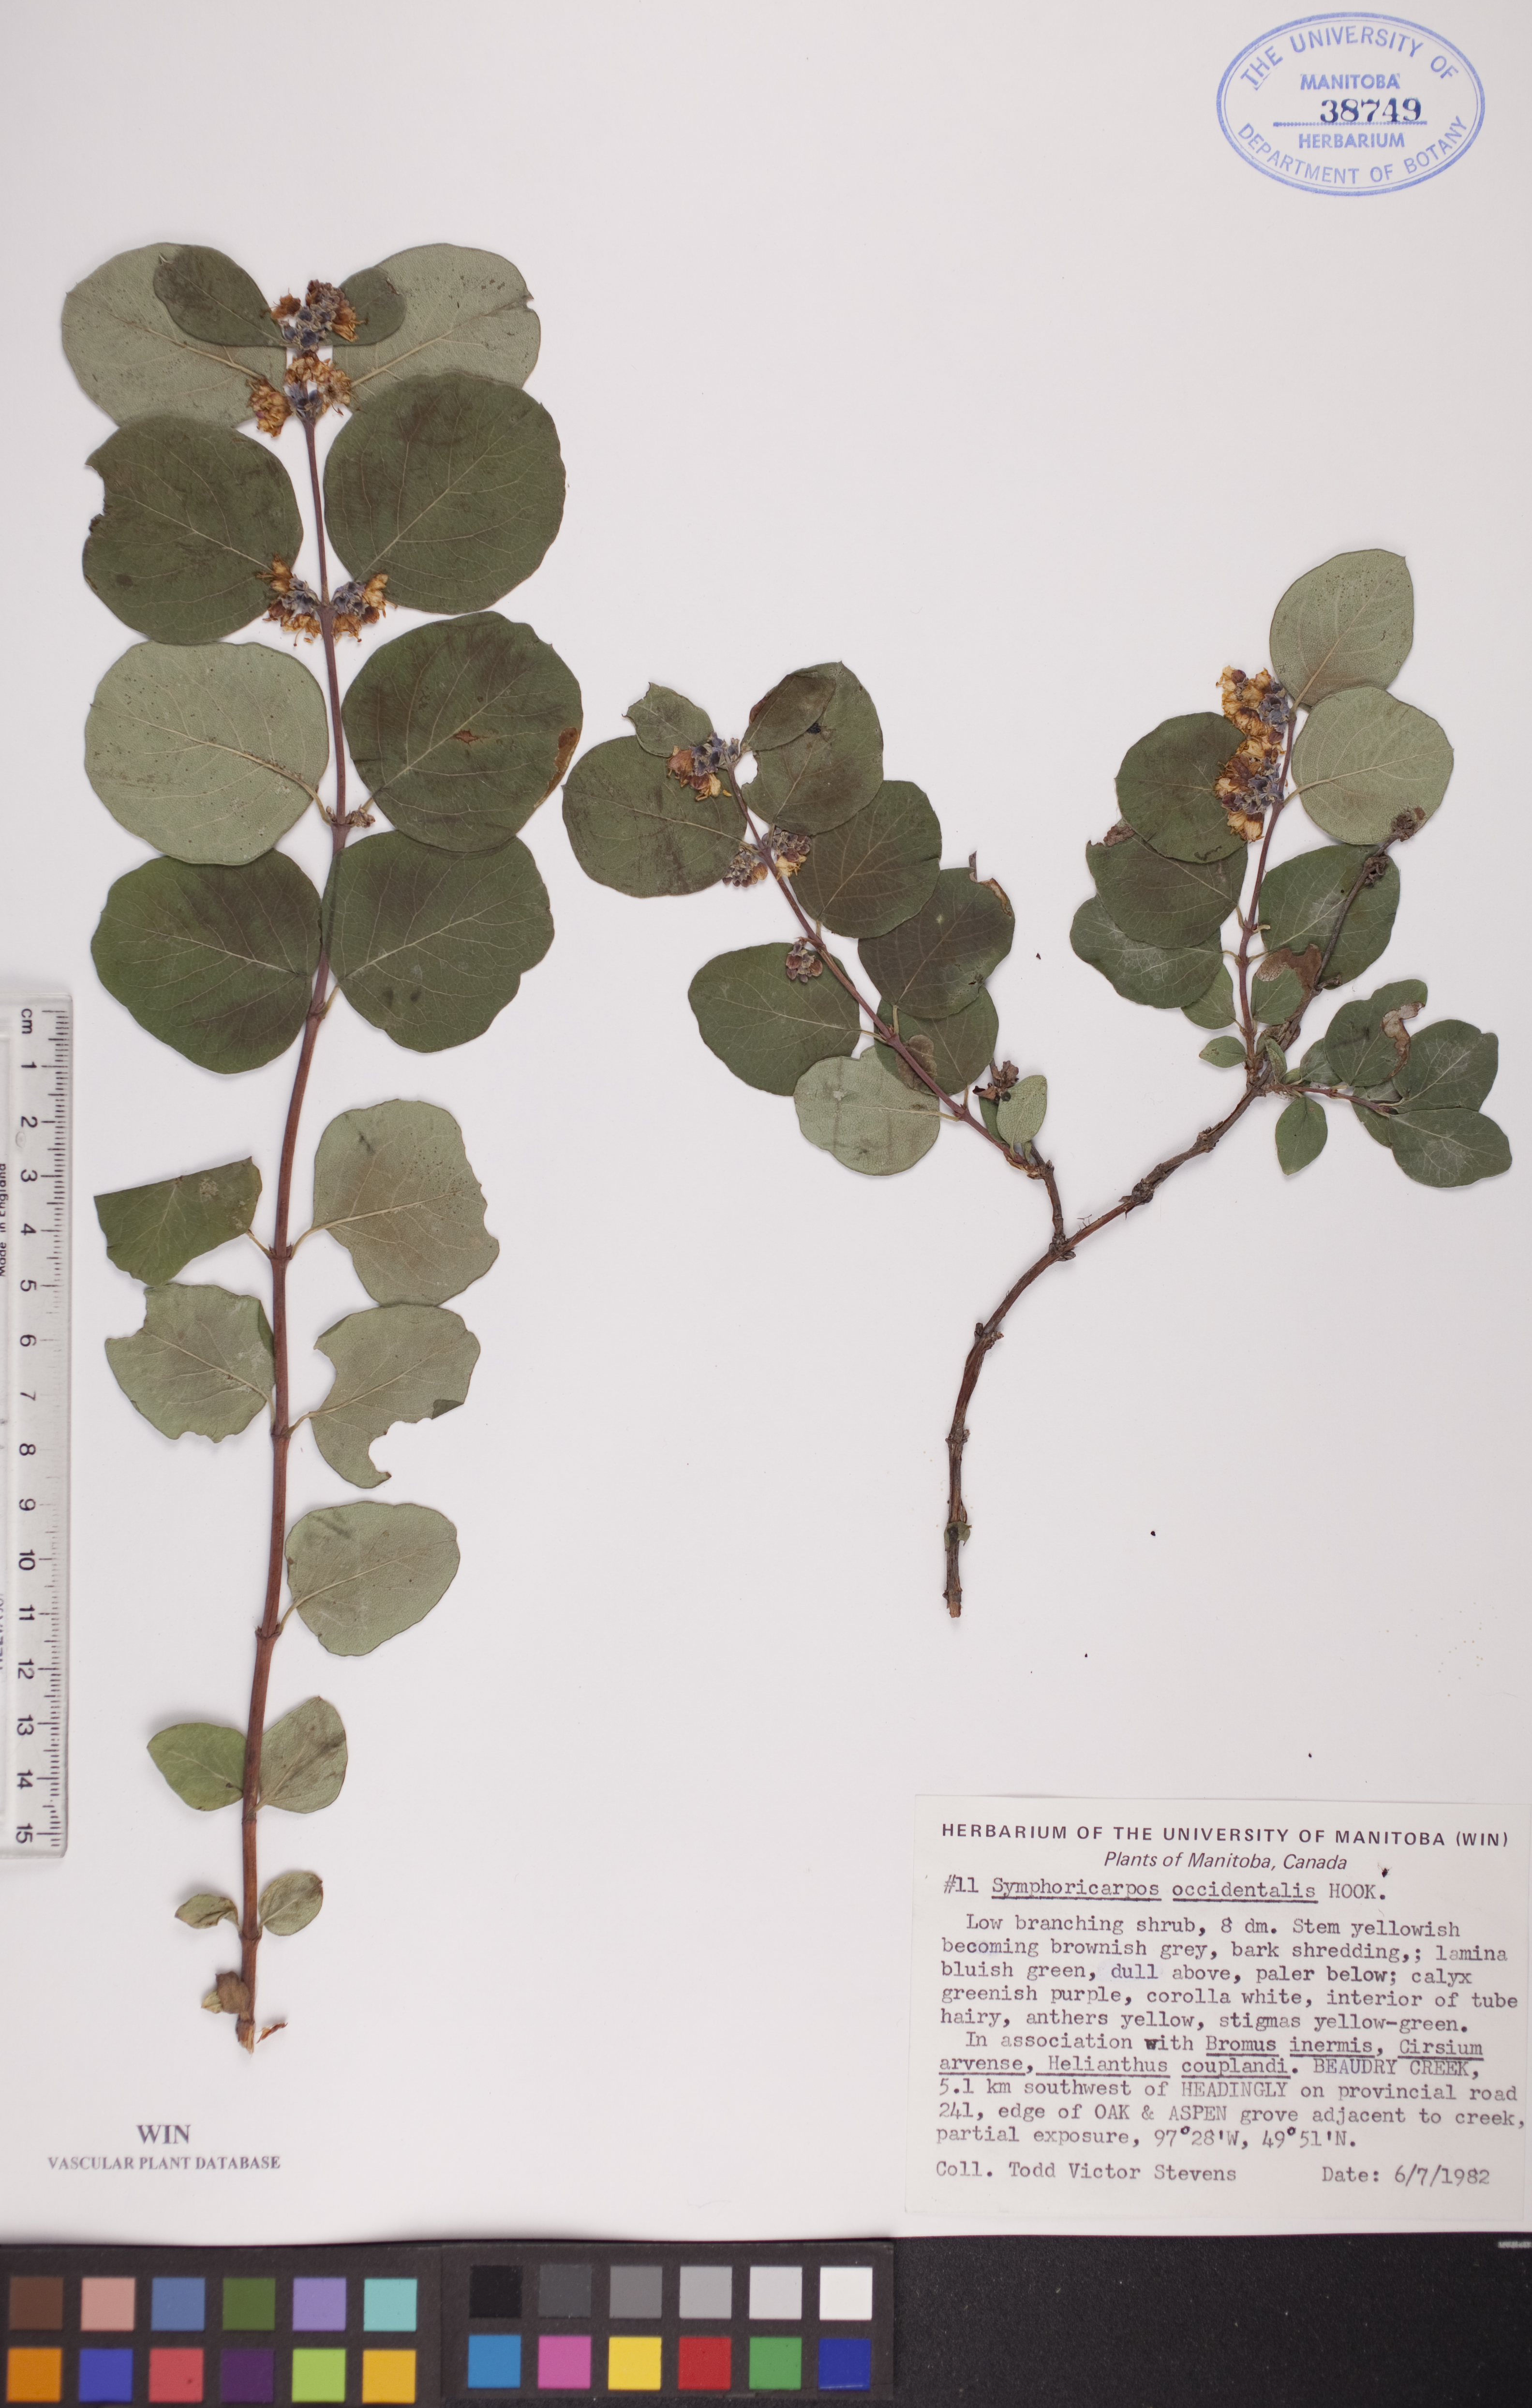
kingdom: Plantae
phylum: Tracheophyta
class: Magnoliopsida
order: Dipsacales
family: Caprifoliaceae
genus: Symphoricarpos
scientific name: Symphoricarpos occidentalis
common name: Wolfberry
